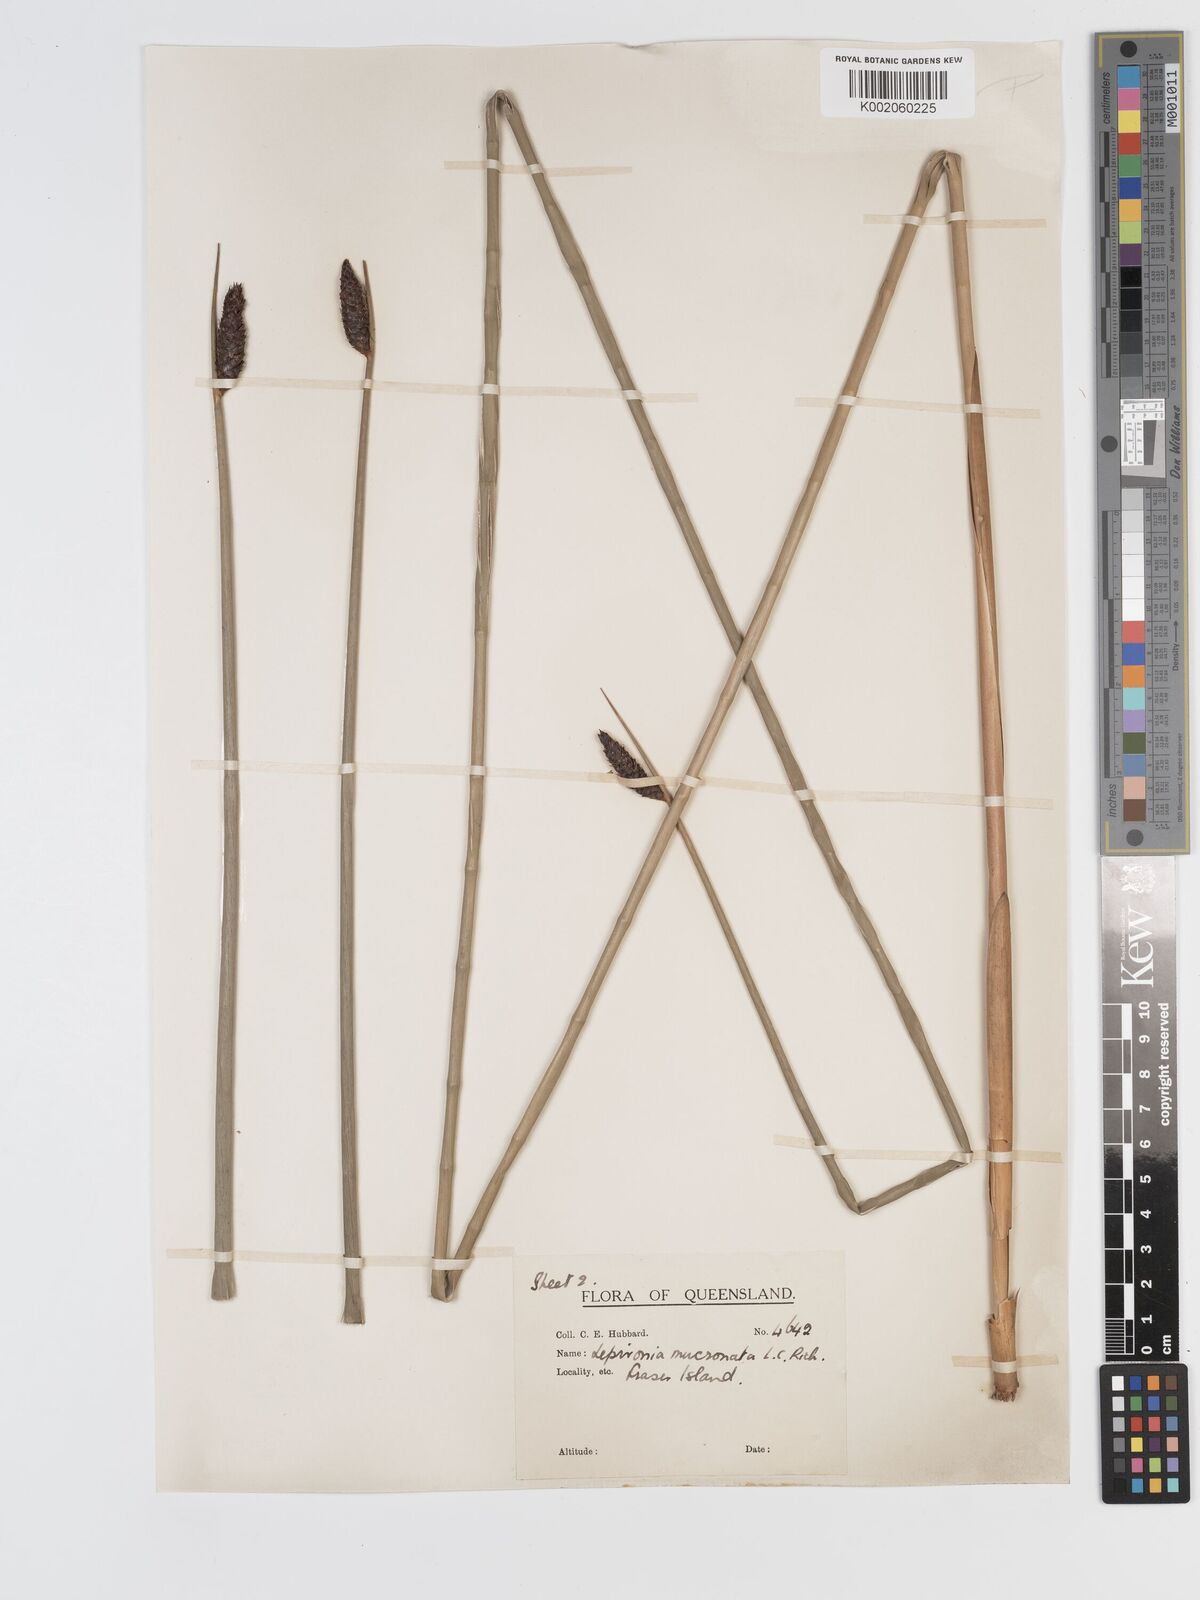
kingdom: Plantae
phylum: Tracheophyta
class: Liliopsida
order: Poales
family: Cyperaceae
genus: Lepironia
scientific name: Lepironia articulata
